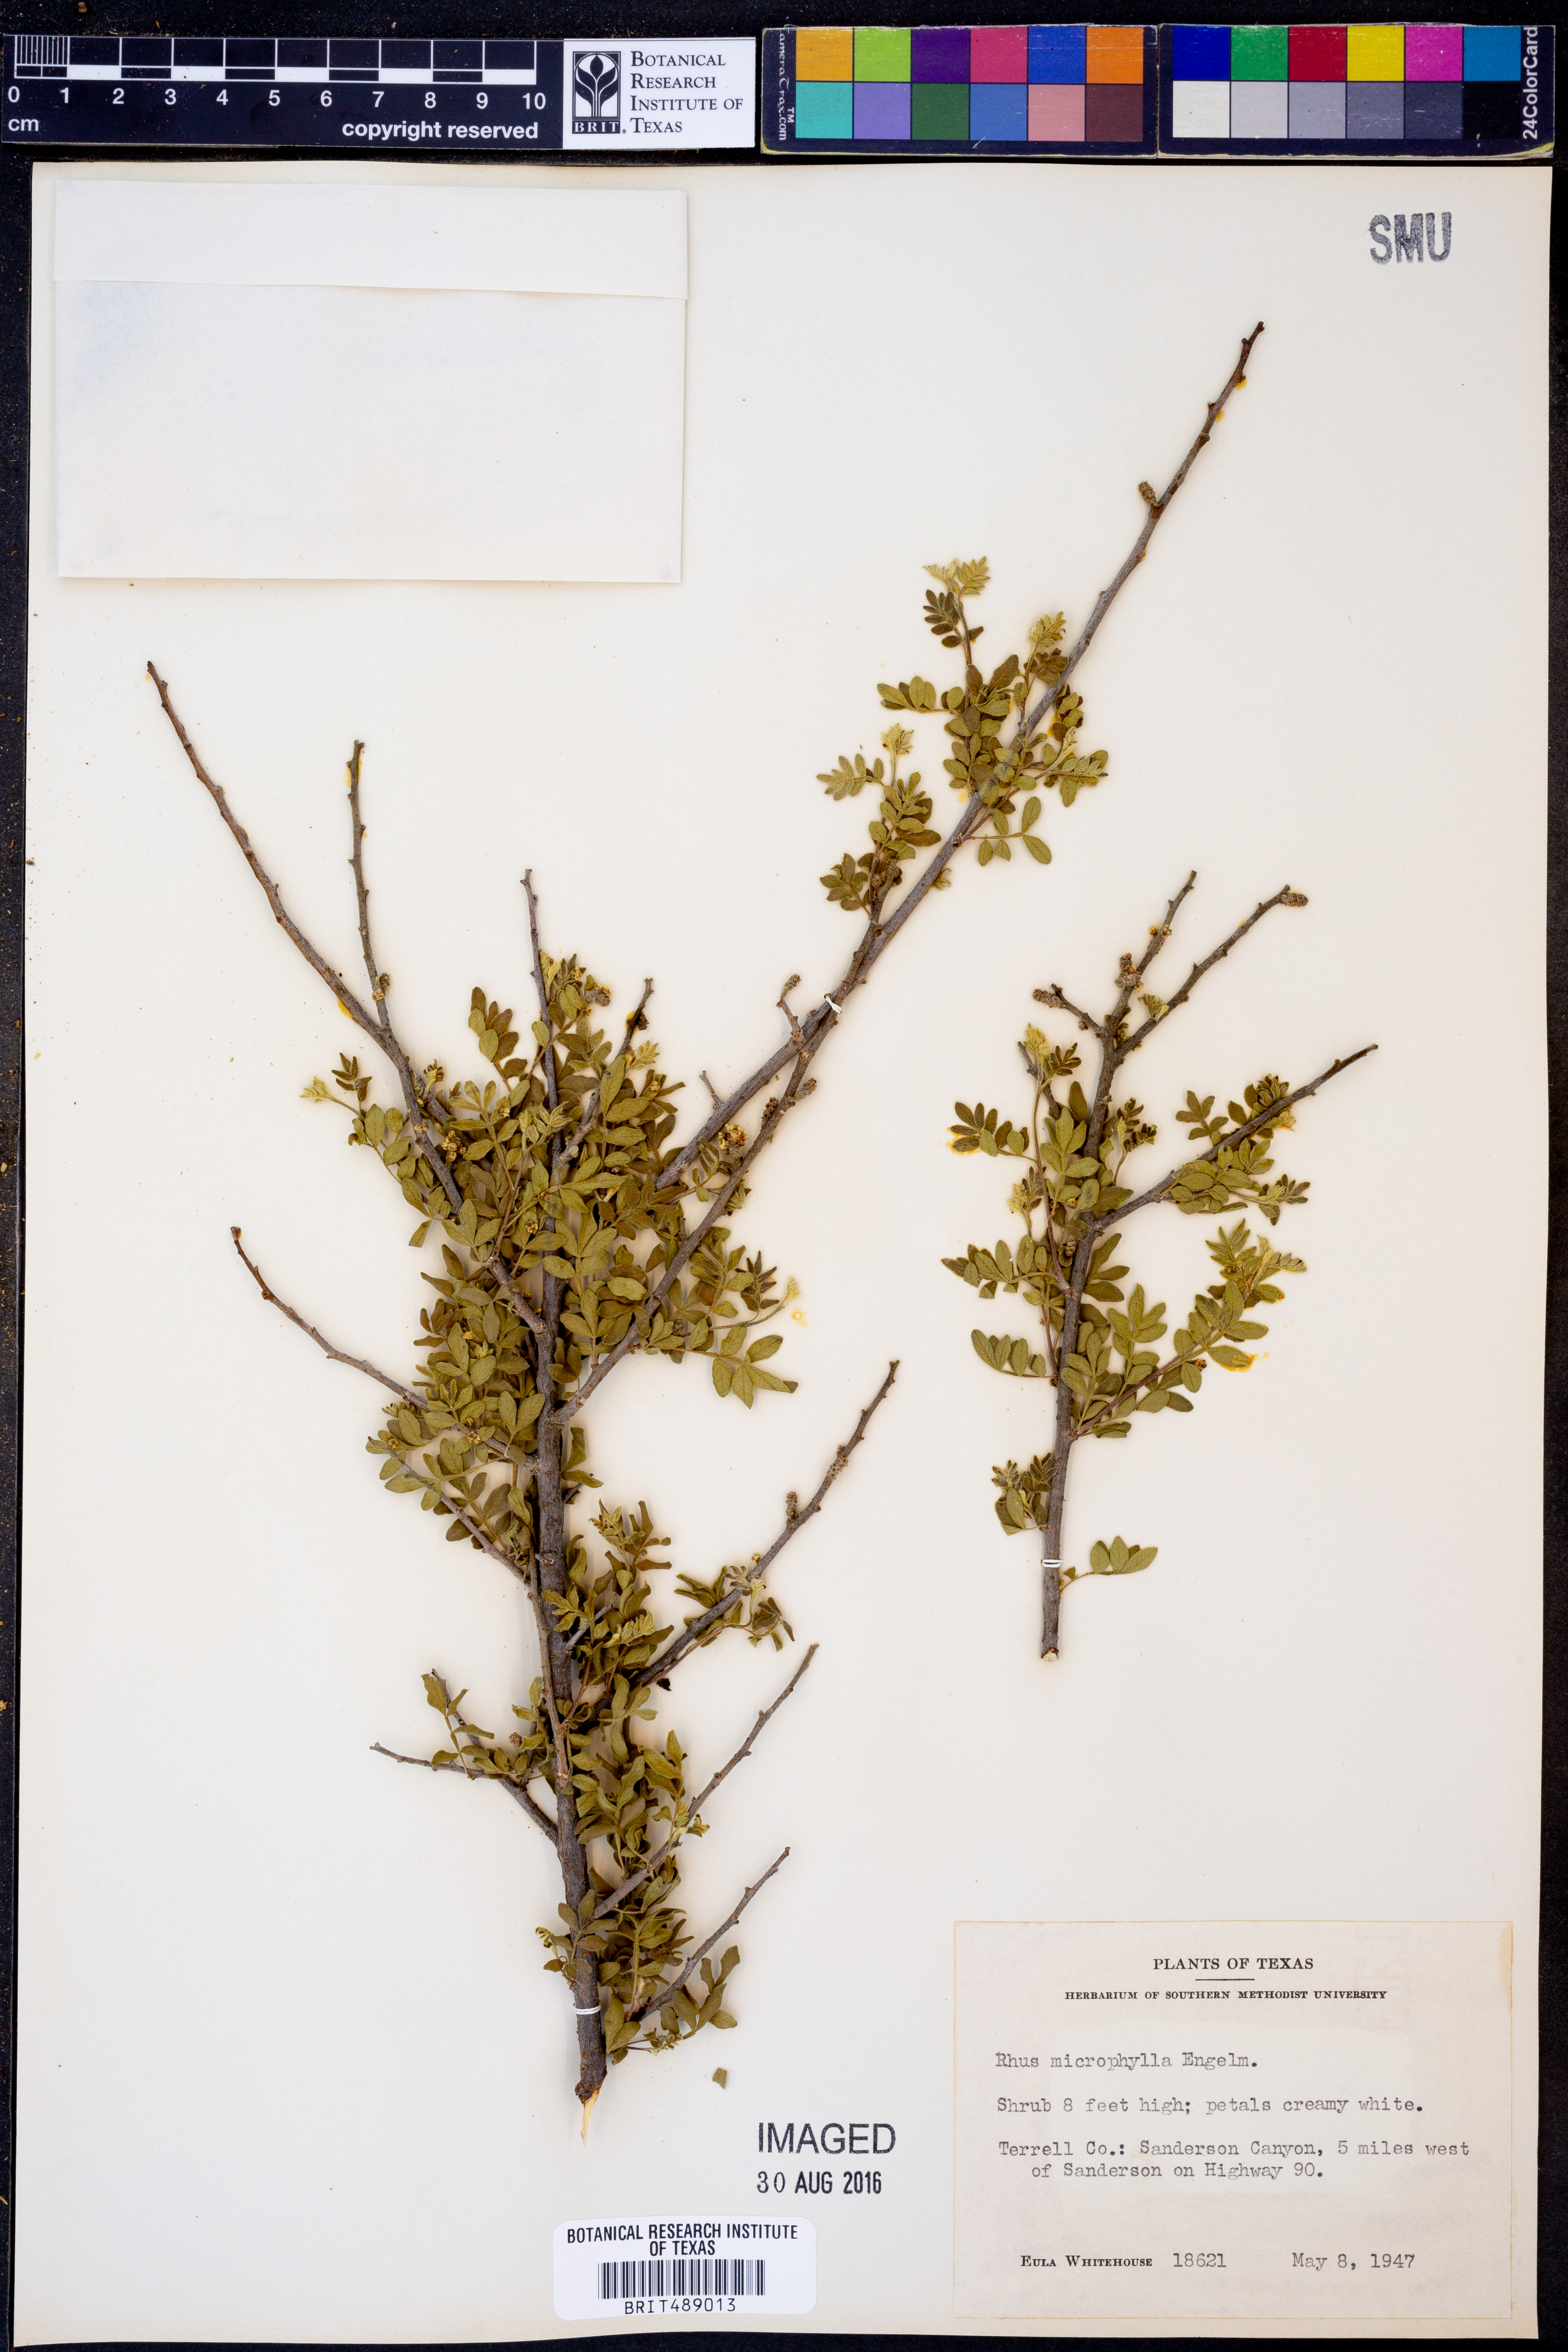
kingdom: Plantae
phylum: Tracheophyta
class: Magnoliopsida
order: Sapindales
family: Anacardiaceae
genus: Rhus
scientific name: Rhus microphylla
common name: Desert sumac
